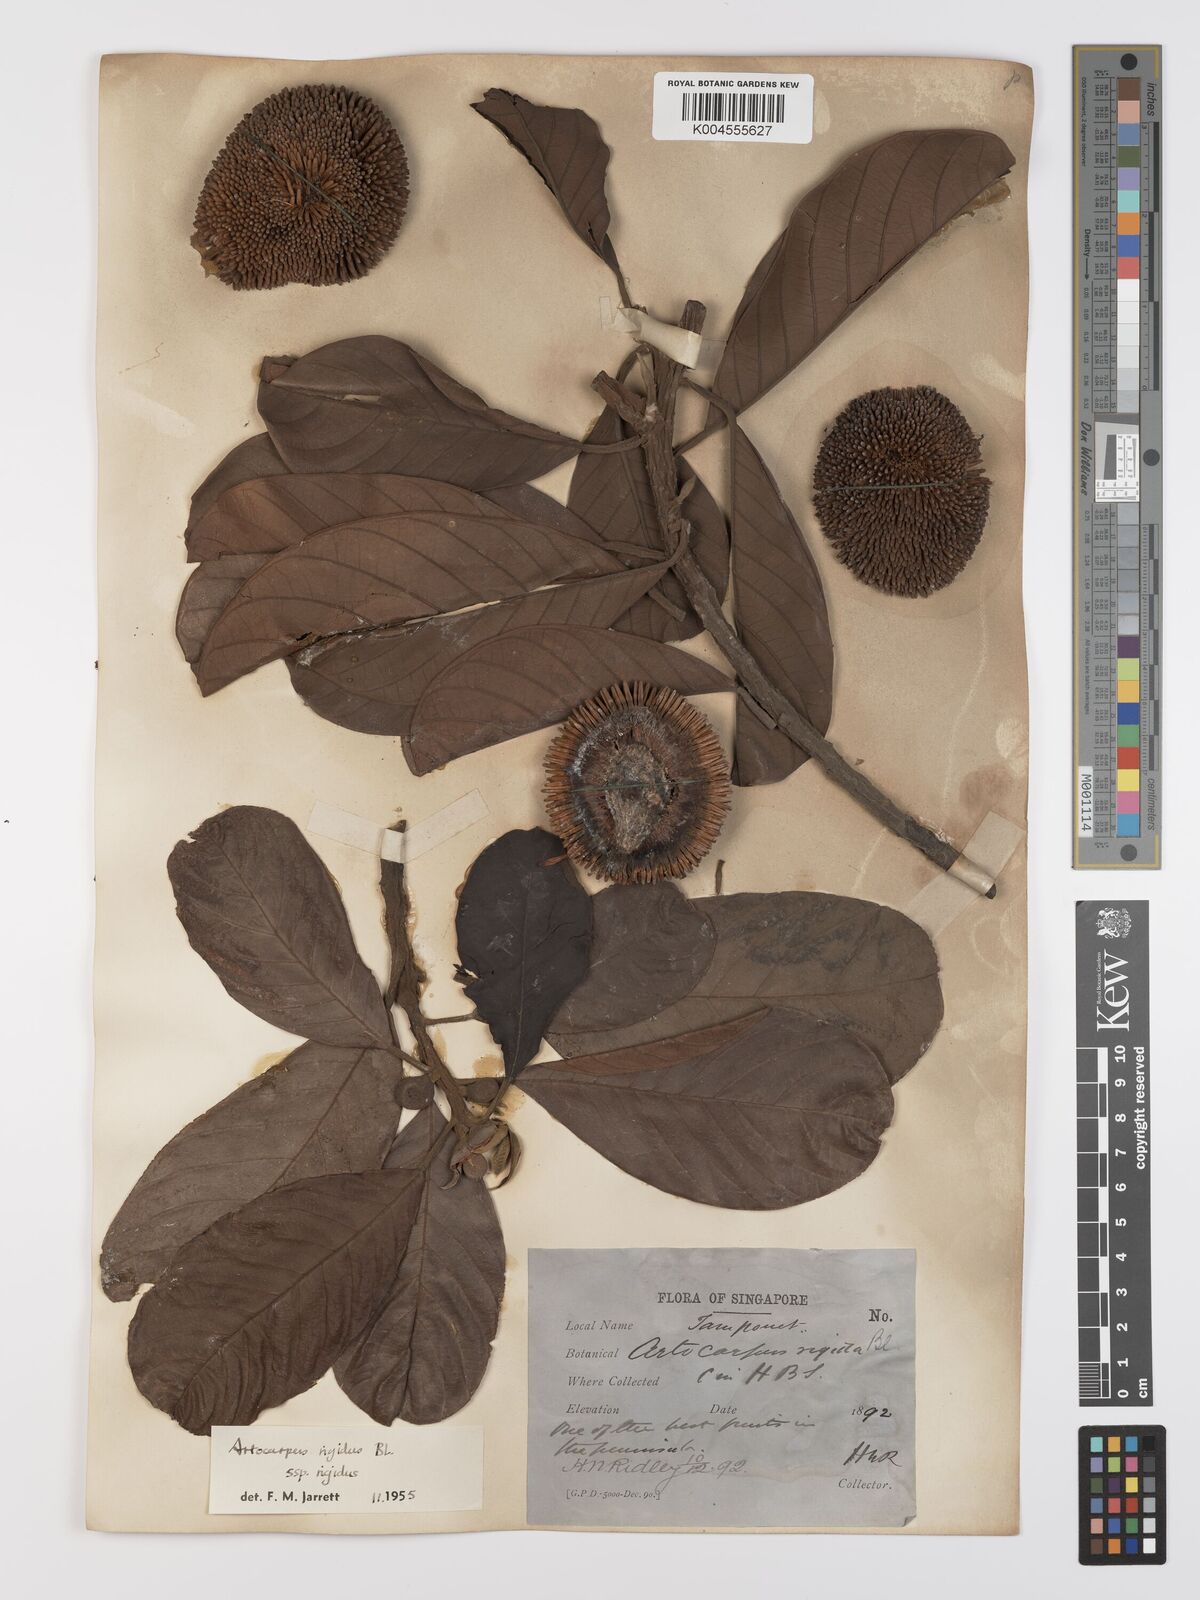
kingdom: Plantae
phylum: Tracheophyta
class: Magnoliopsida
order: Rosales
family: Moraceae
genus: Artocarpus
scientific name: Artocarpus
